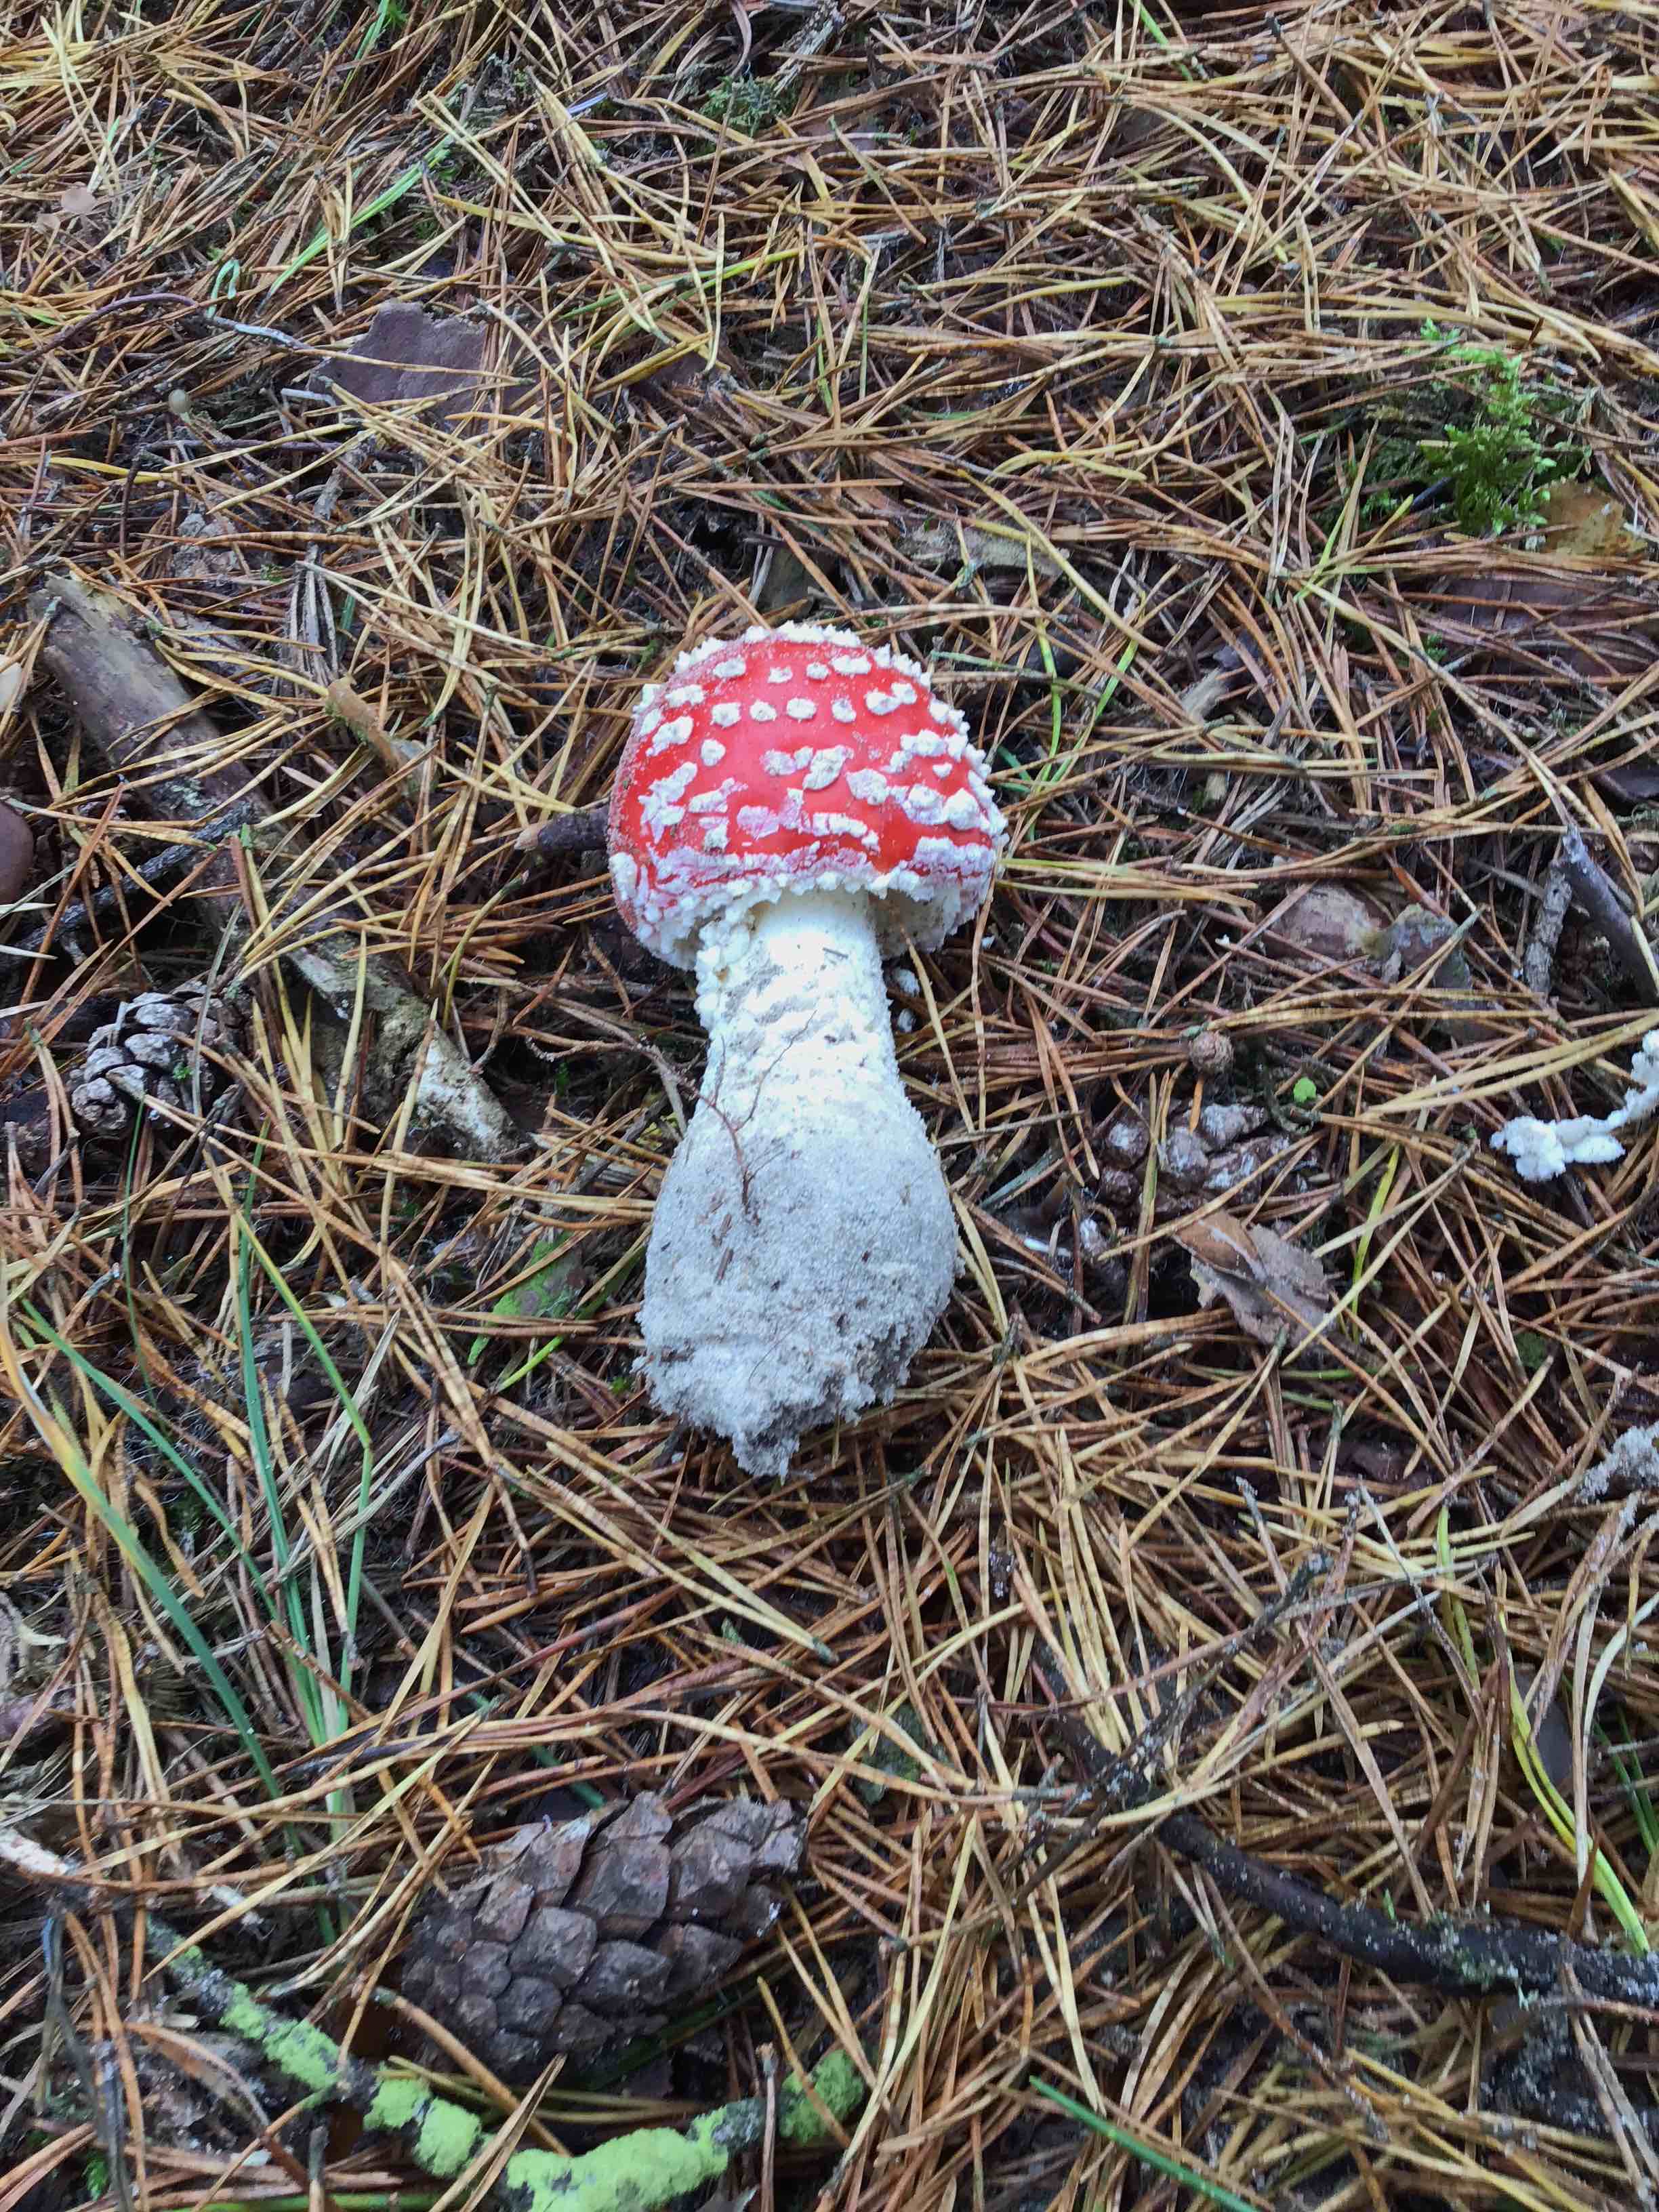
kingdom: Fungi
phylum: Basidiomycota
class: Agaricomycetes
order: Agaricales
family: Amanitaceae
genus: Amanita
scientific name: Amanita muscaria
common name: rød fluesvamp
